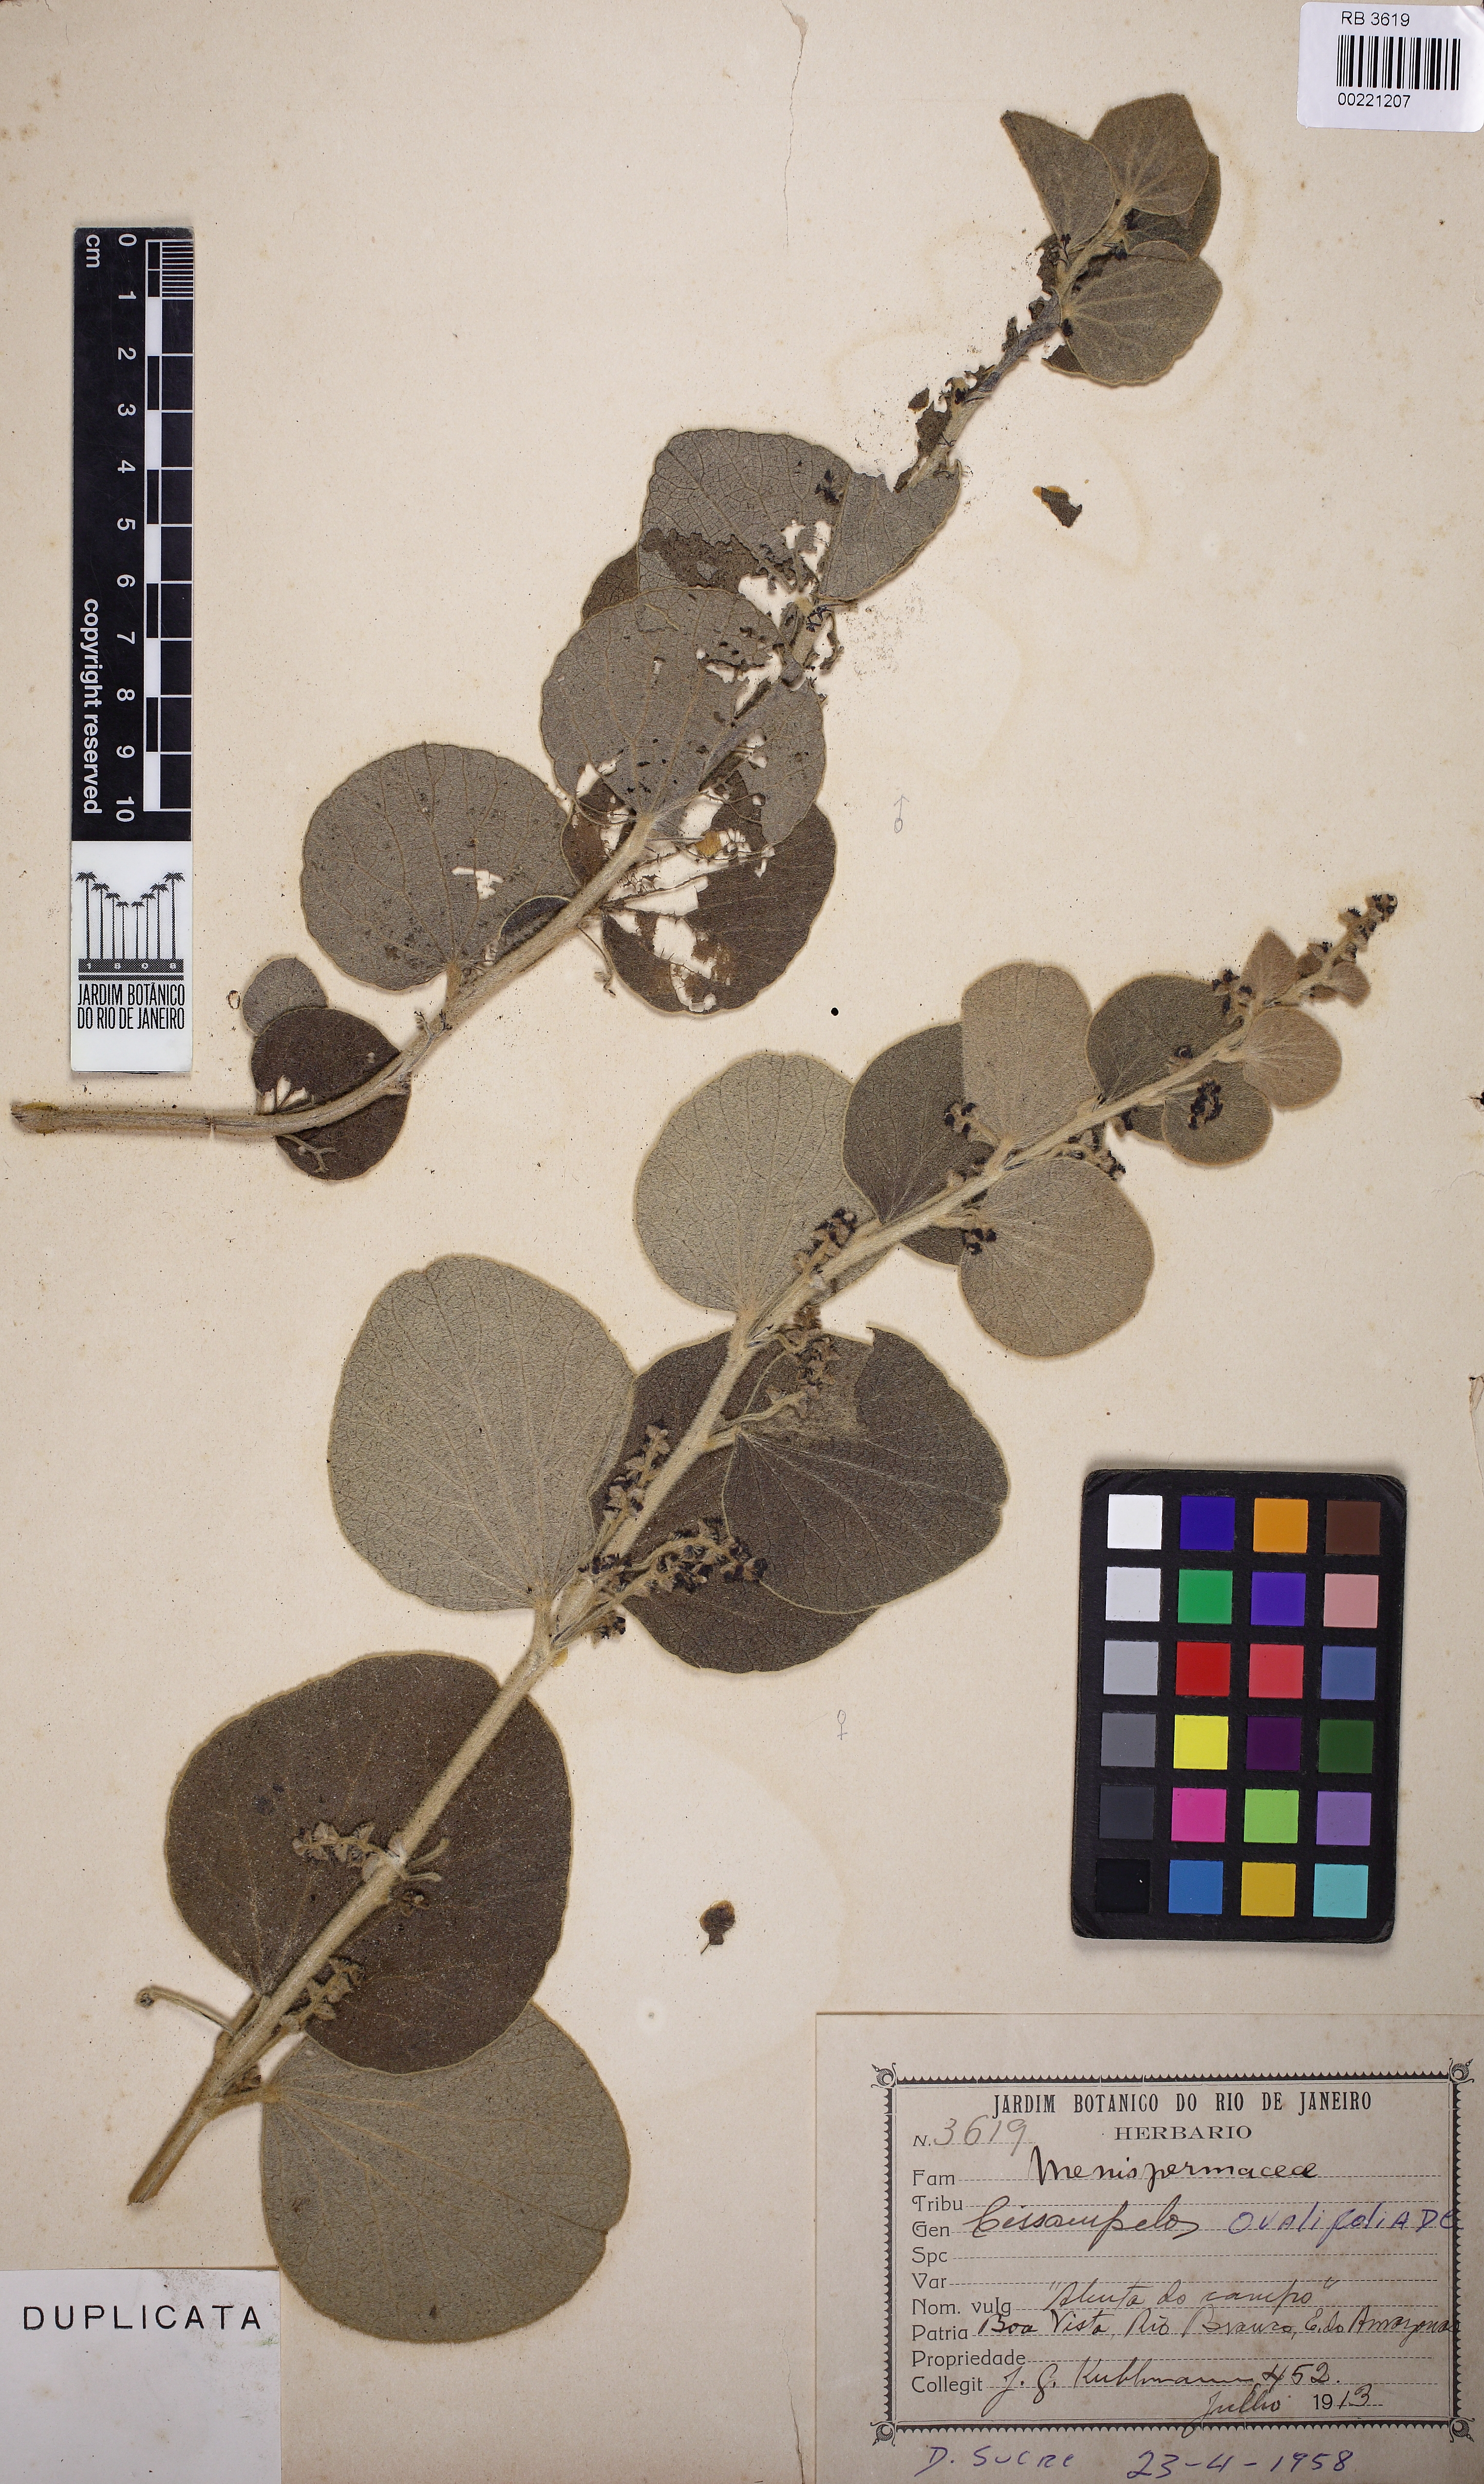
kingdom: Plantae
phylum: Tracheophyta
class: Magnoliopsida
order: Ranunculales
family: Menispermaceae
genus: Cissampelos
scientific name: Cissampelos ovalifolia
